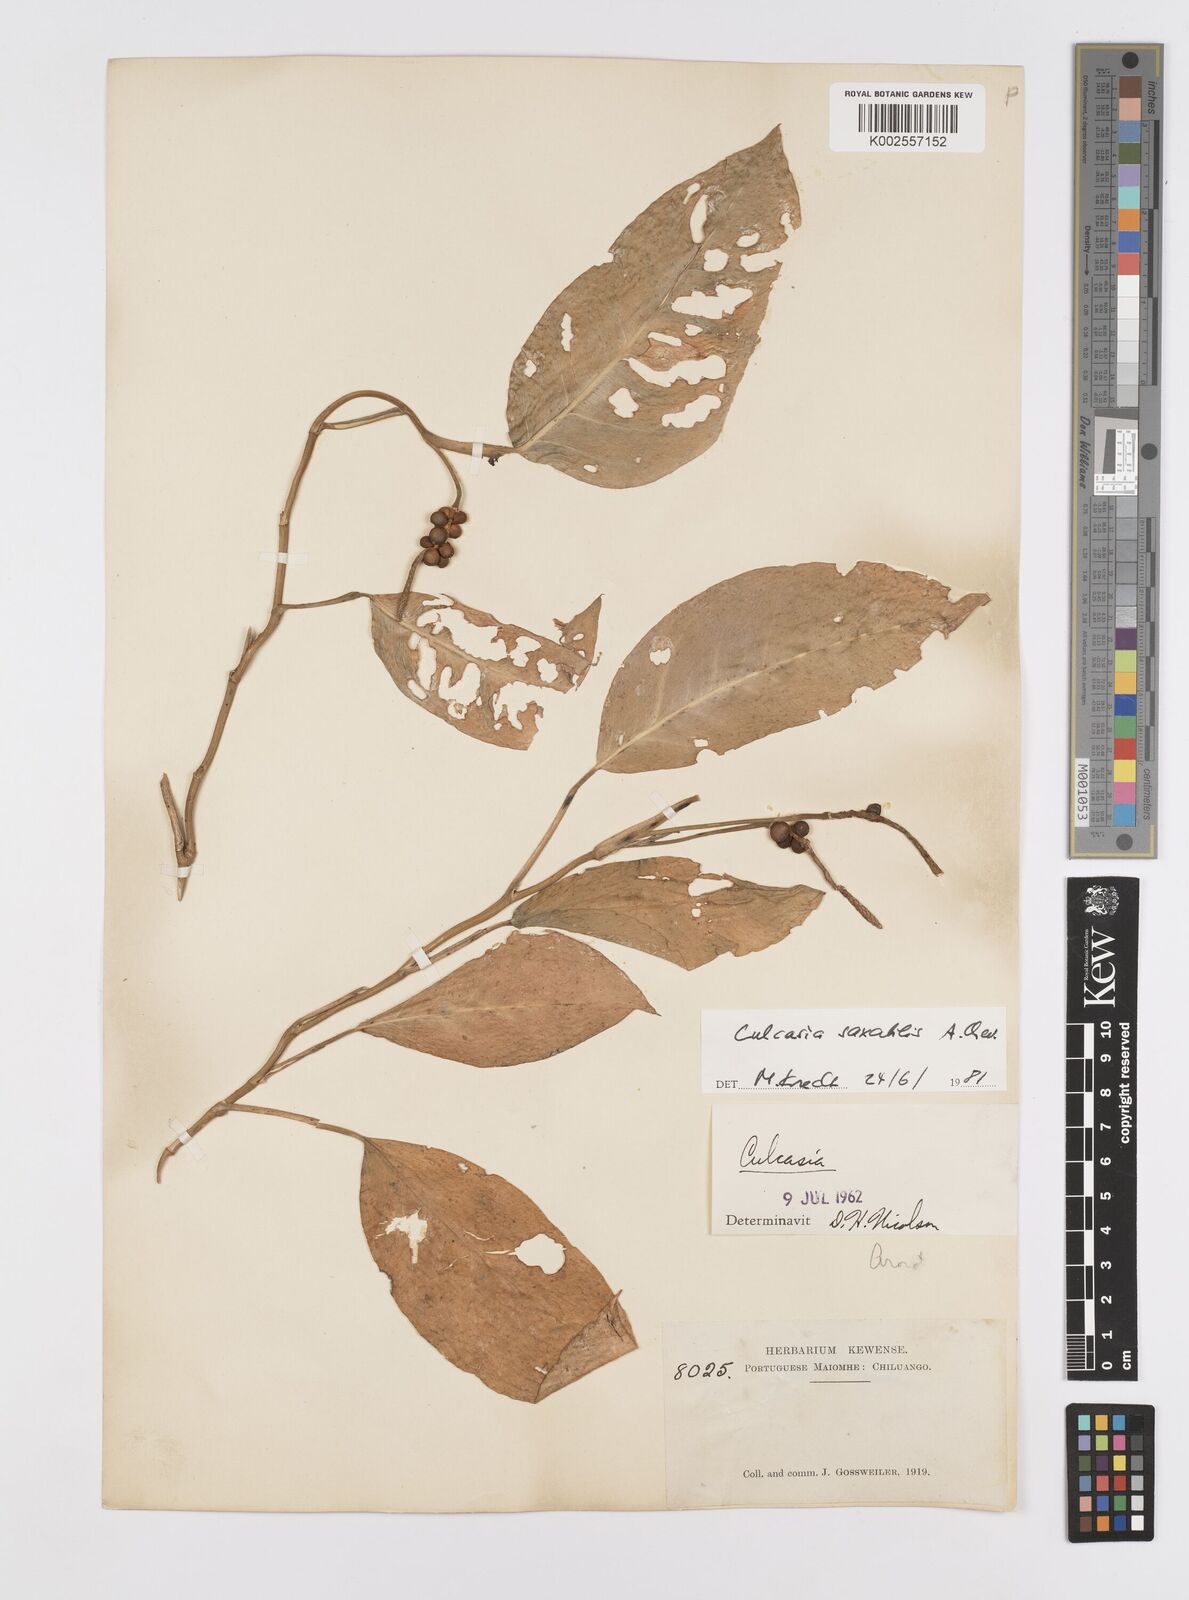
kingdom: Plantae
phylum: Tracheophyta
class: Liliopsida
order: Alismatales
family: Araceae
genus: Culcasia
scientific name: Culcasia scandens
